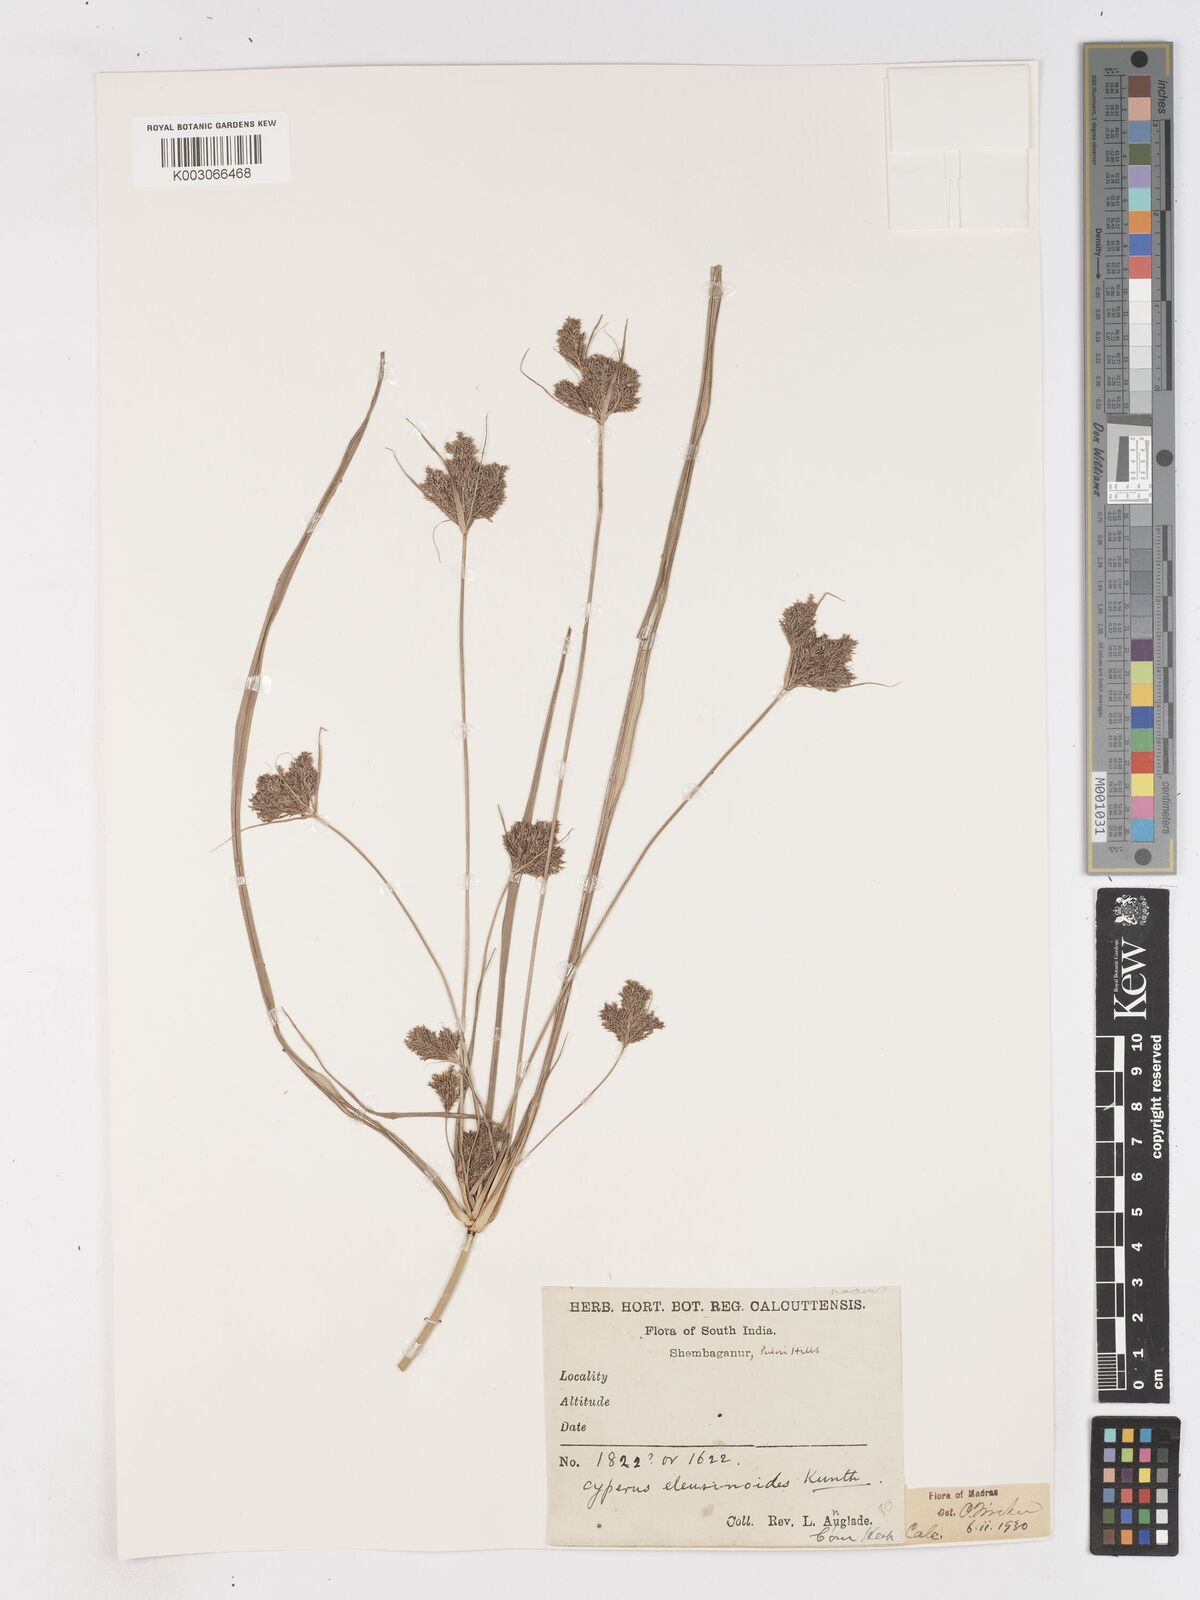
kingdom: Plantae
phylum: Tracheophyta
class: Liliopsida
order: Poales
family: Cyperaceae
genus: Cyperus
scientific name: Cyperus nutans
